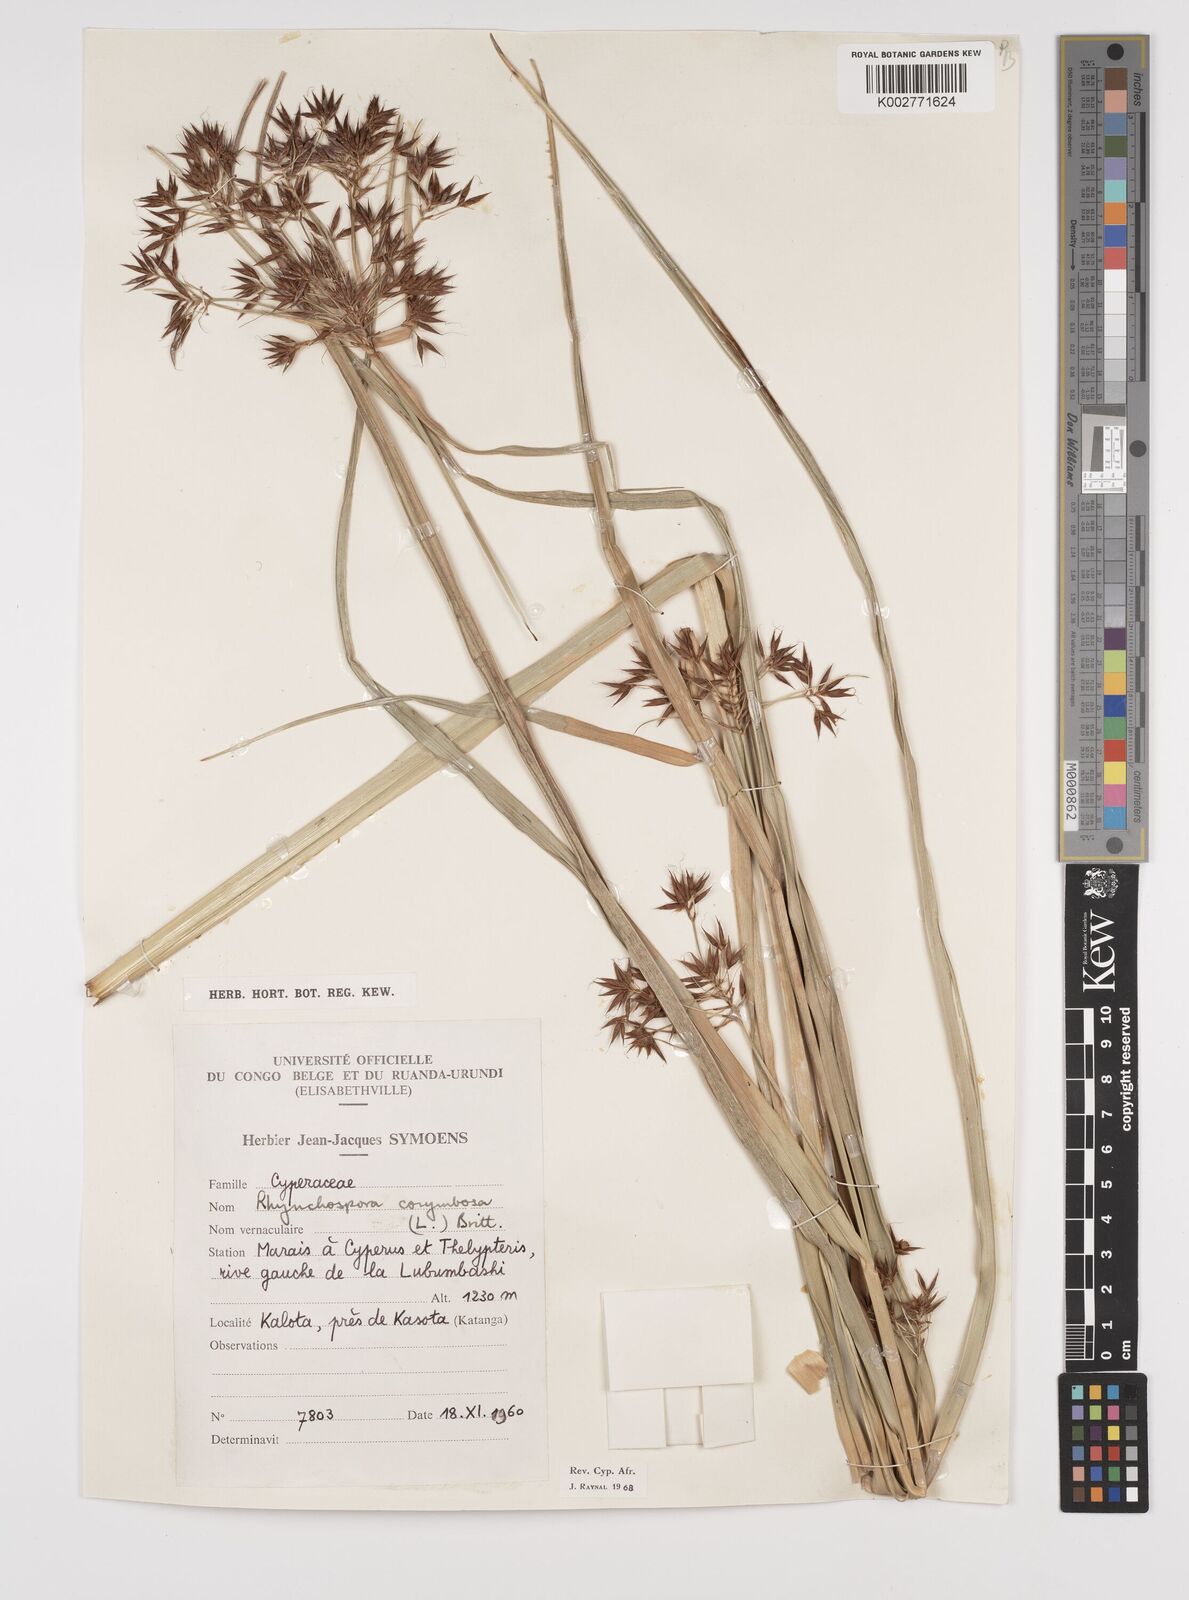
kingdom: Plantae
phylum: Tracheophyta
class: Liliopsida
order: Poales
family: Cyperaceae
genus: Rhynchospora
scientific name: Rhynchospora corymbosa
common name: Golden beak sedge
